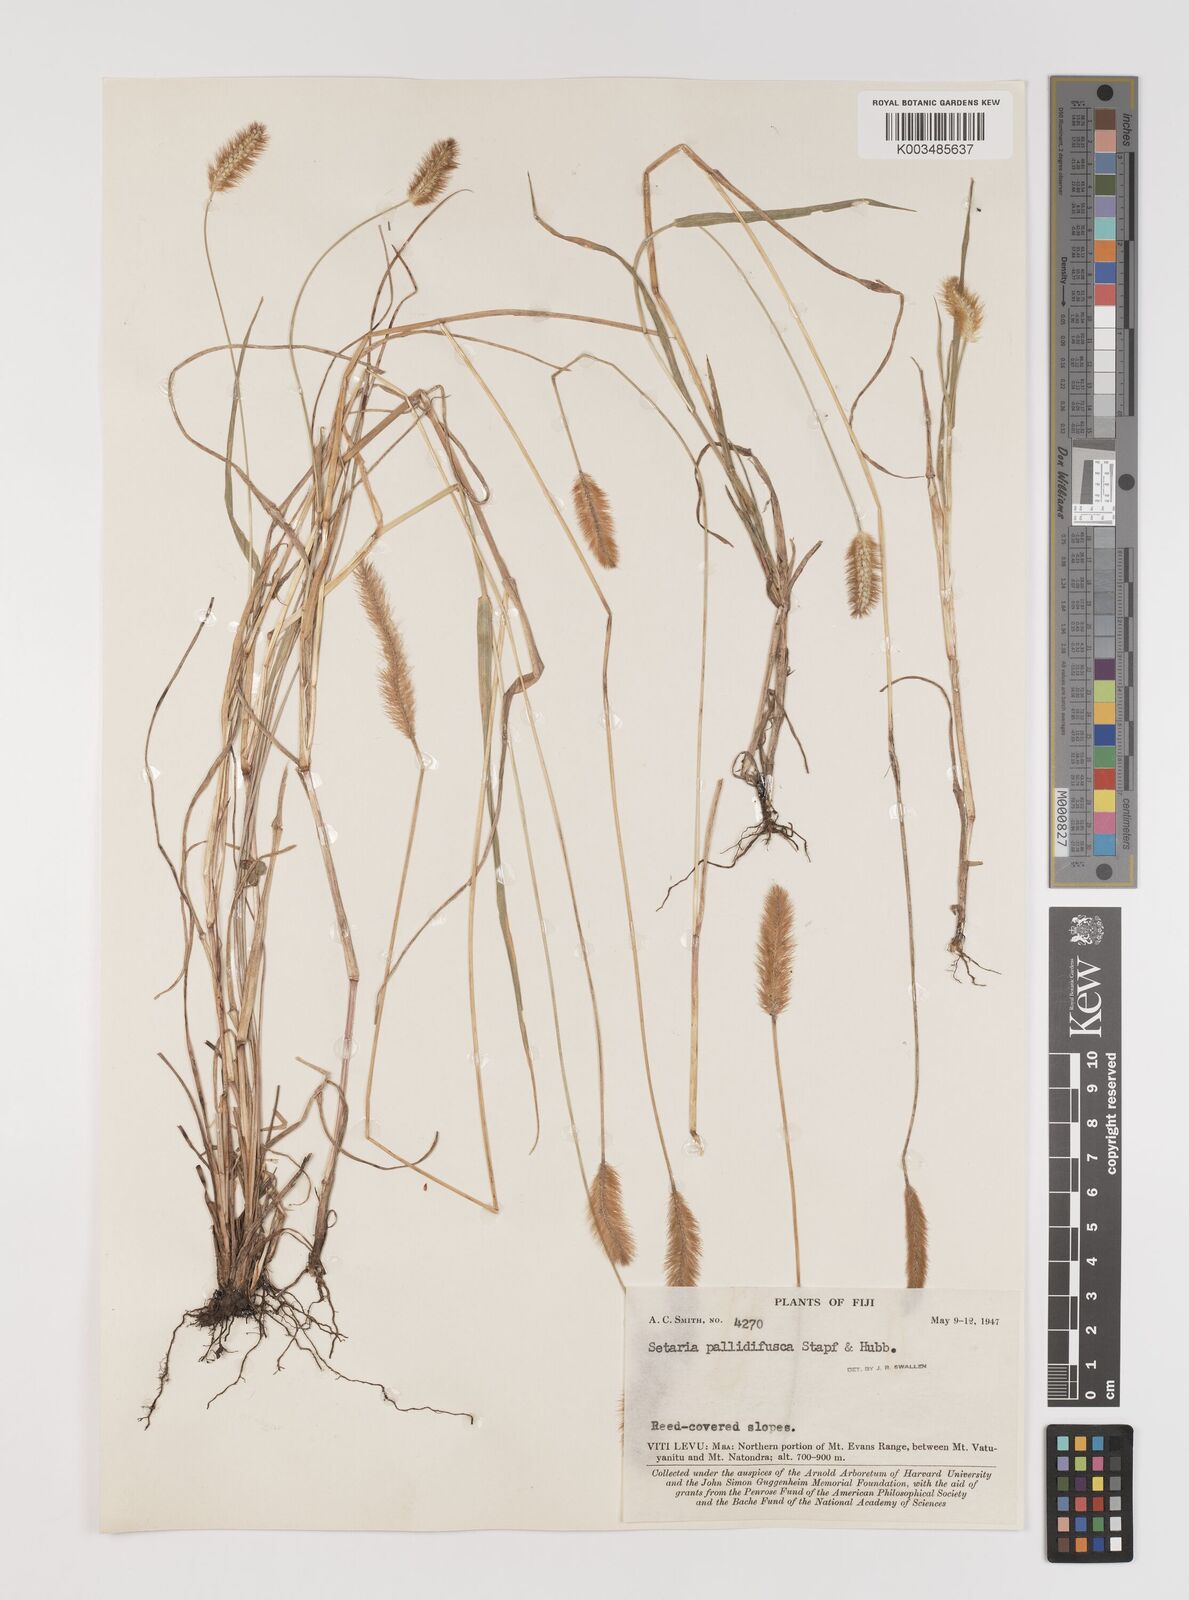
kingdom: Plantae
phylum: Tracheophyta
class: Liliopsida
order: Poales
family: Poaceae
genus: Setaria
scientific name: Setaria pumila
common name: Yellow bristle-grass
